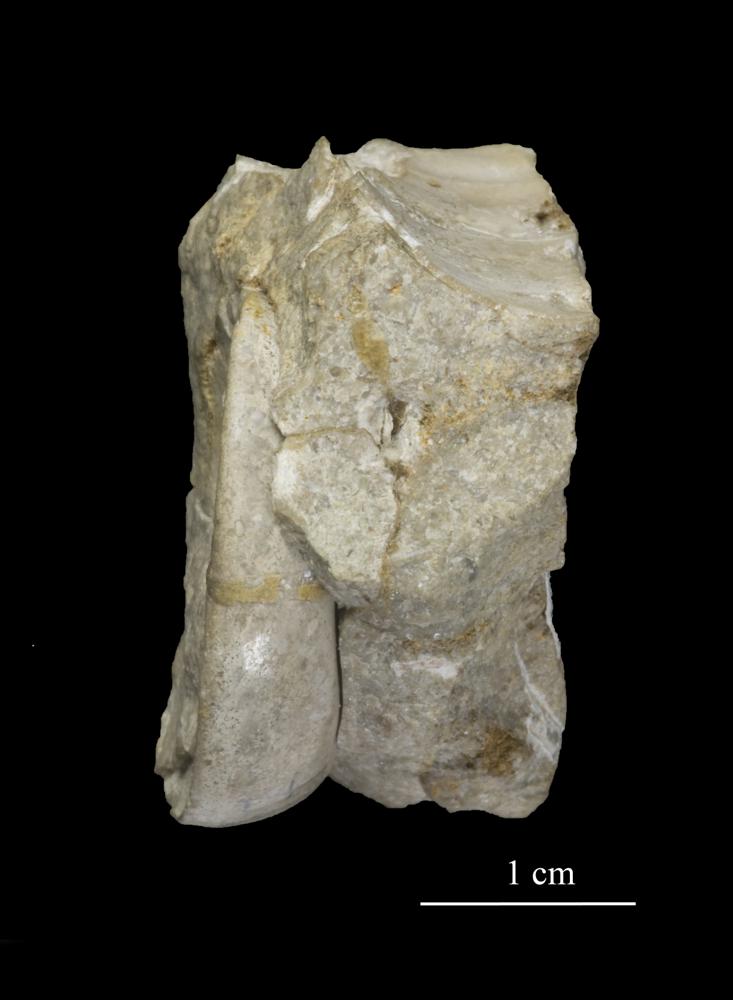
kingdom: Animalia
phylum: Mollusca
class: Gastropoda
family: Lesueurillidae
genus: Eccyliopterus
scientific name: Eccyliopterus Euomphalus incresens
